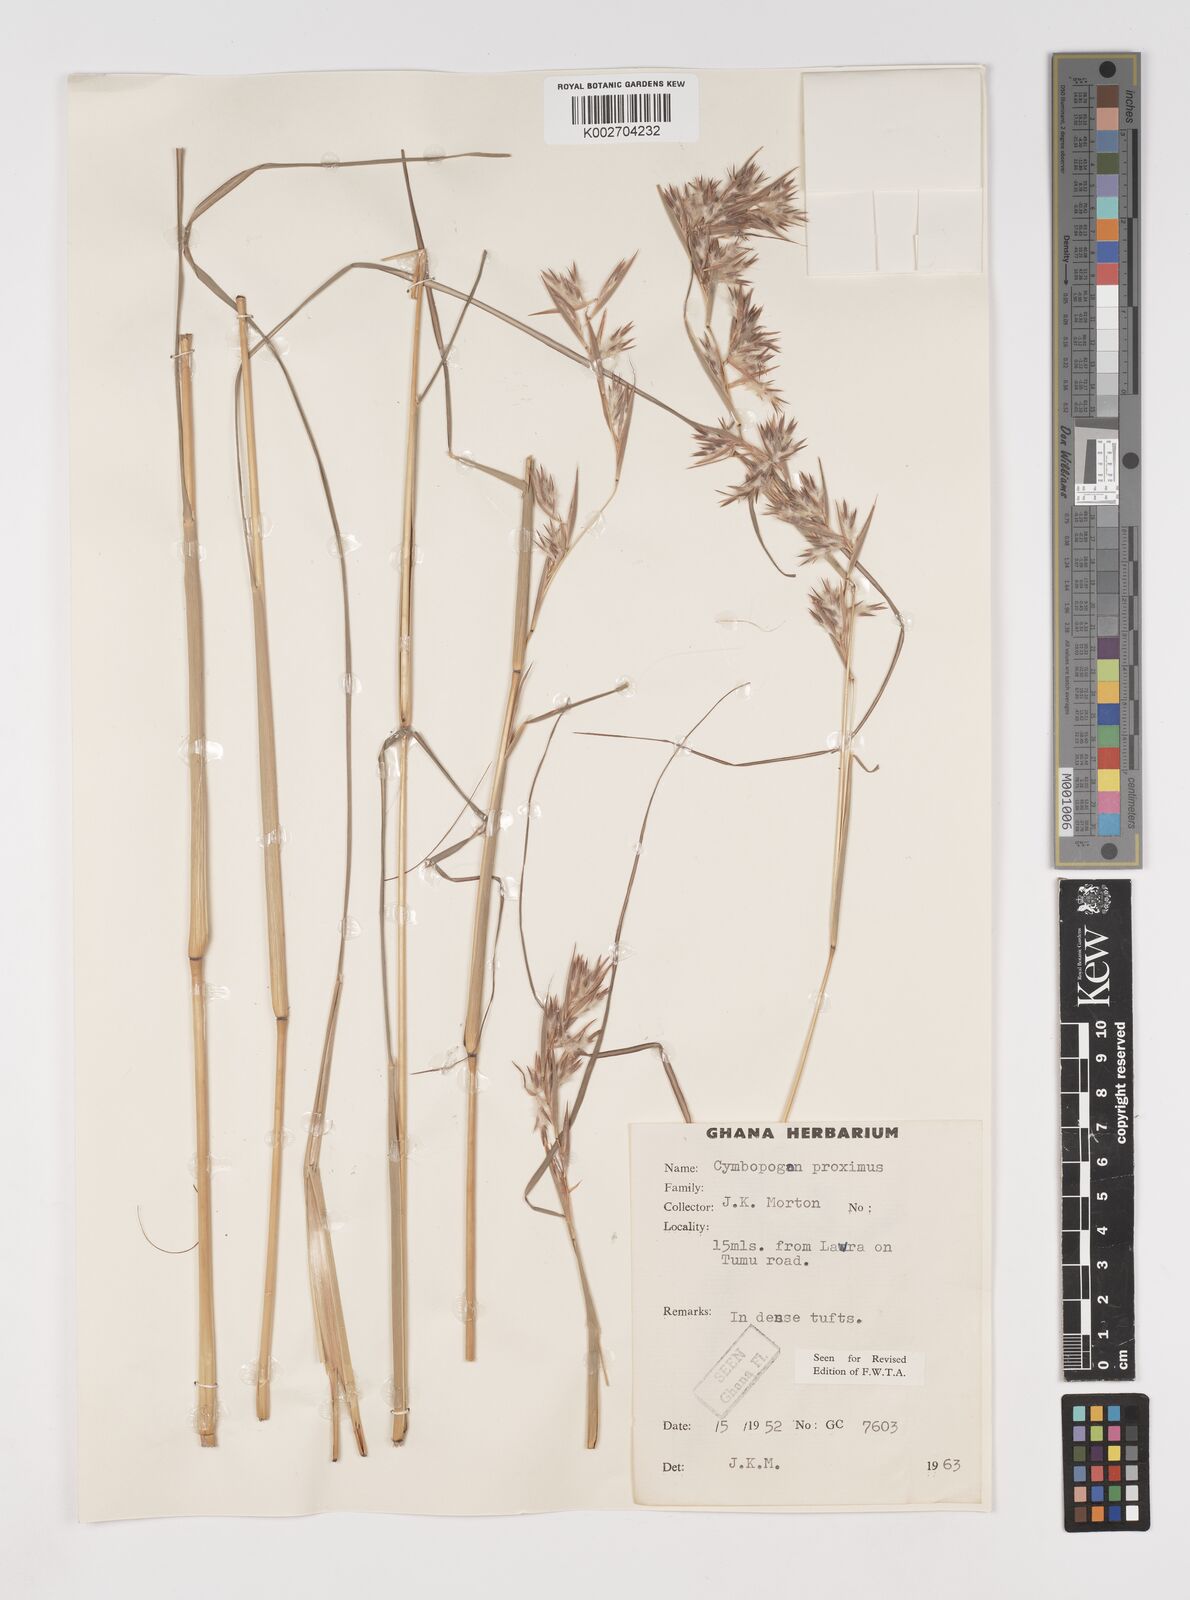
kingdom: Plantae
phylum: Tracheophyta
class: Liliopsida
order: Poales
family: Poaceae
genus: Cymbopogon
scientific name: Cymbopogon schoenanthus
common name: Geranium grass
